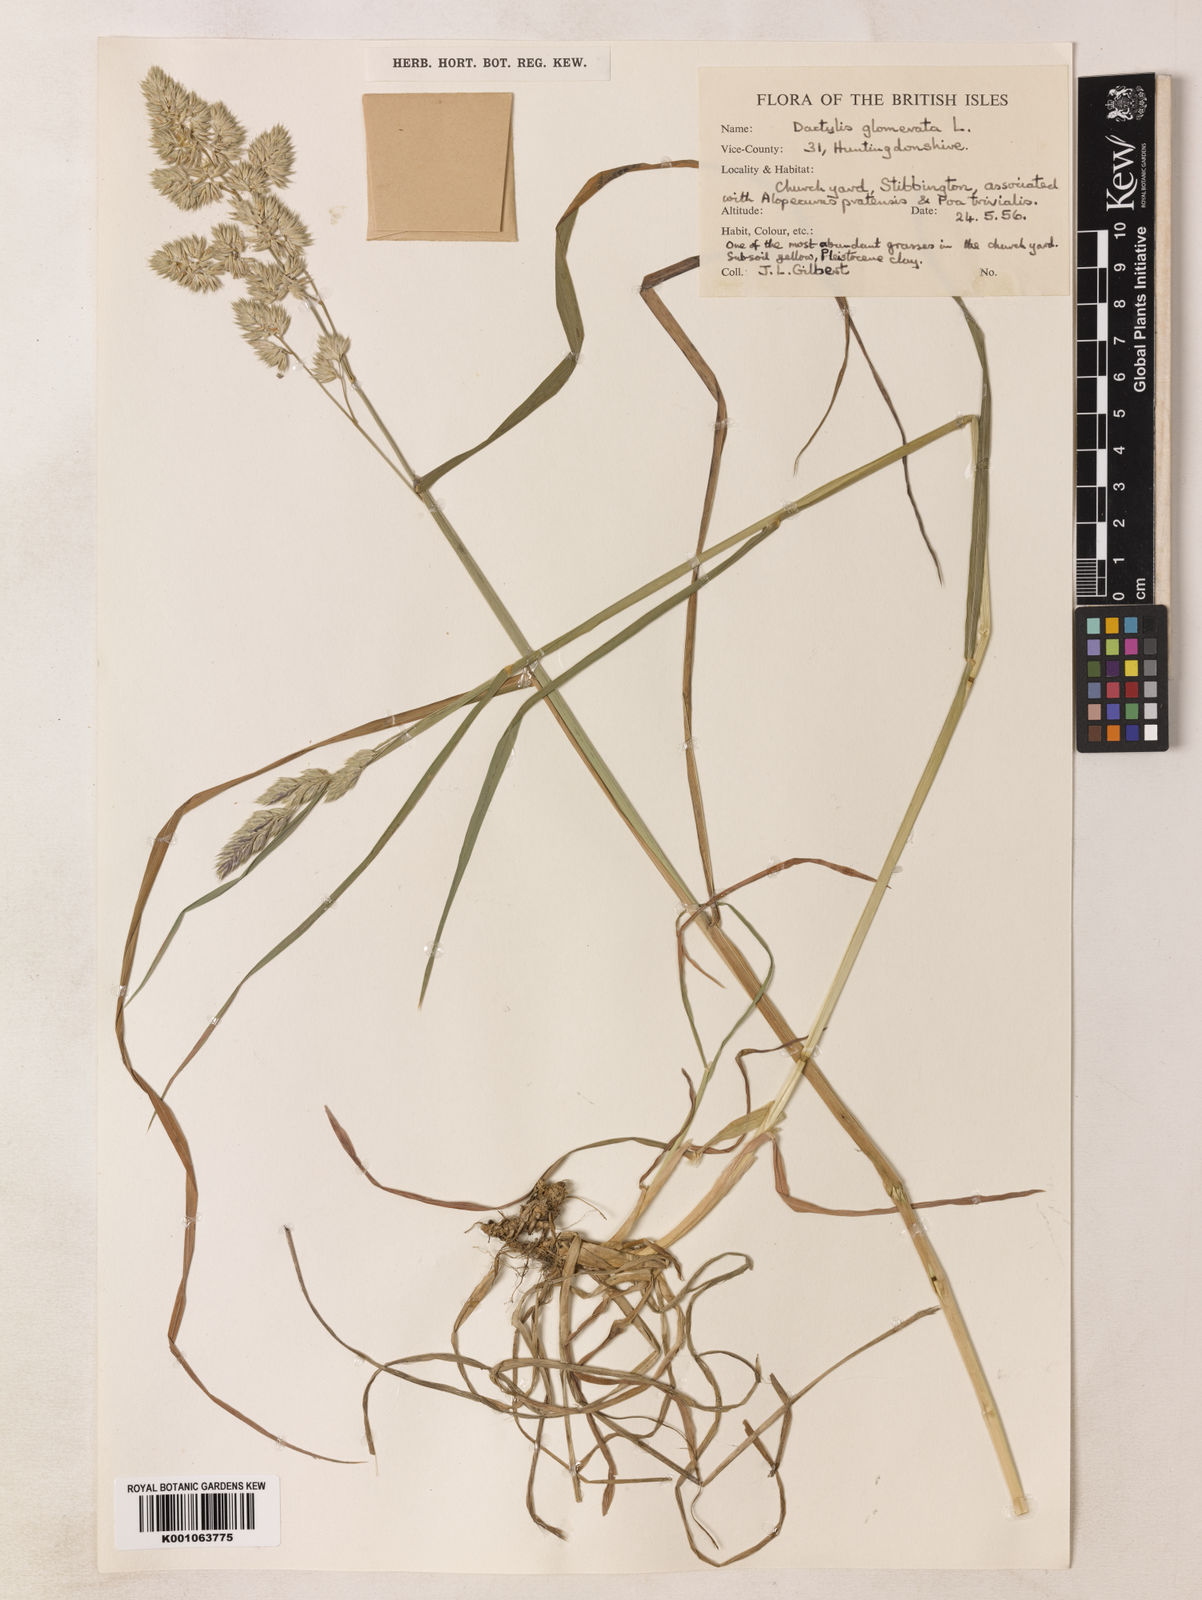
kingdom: Plantae
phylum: Tracheophyta
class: Liliopsida
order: Poales
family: Poaceae
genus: Dactylis
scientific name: Dactylis glomerata
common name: Orchardgrass
